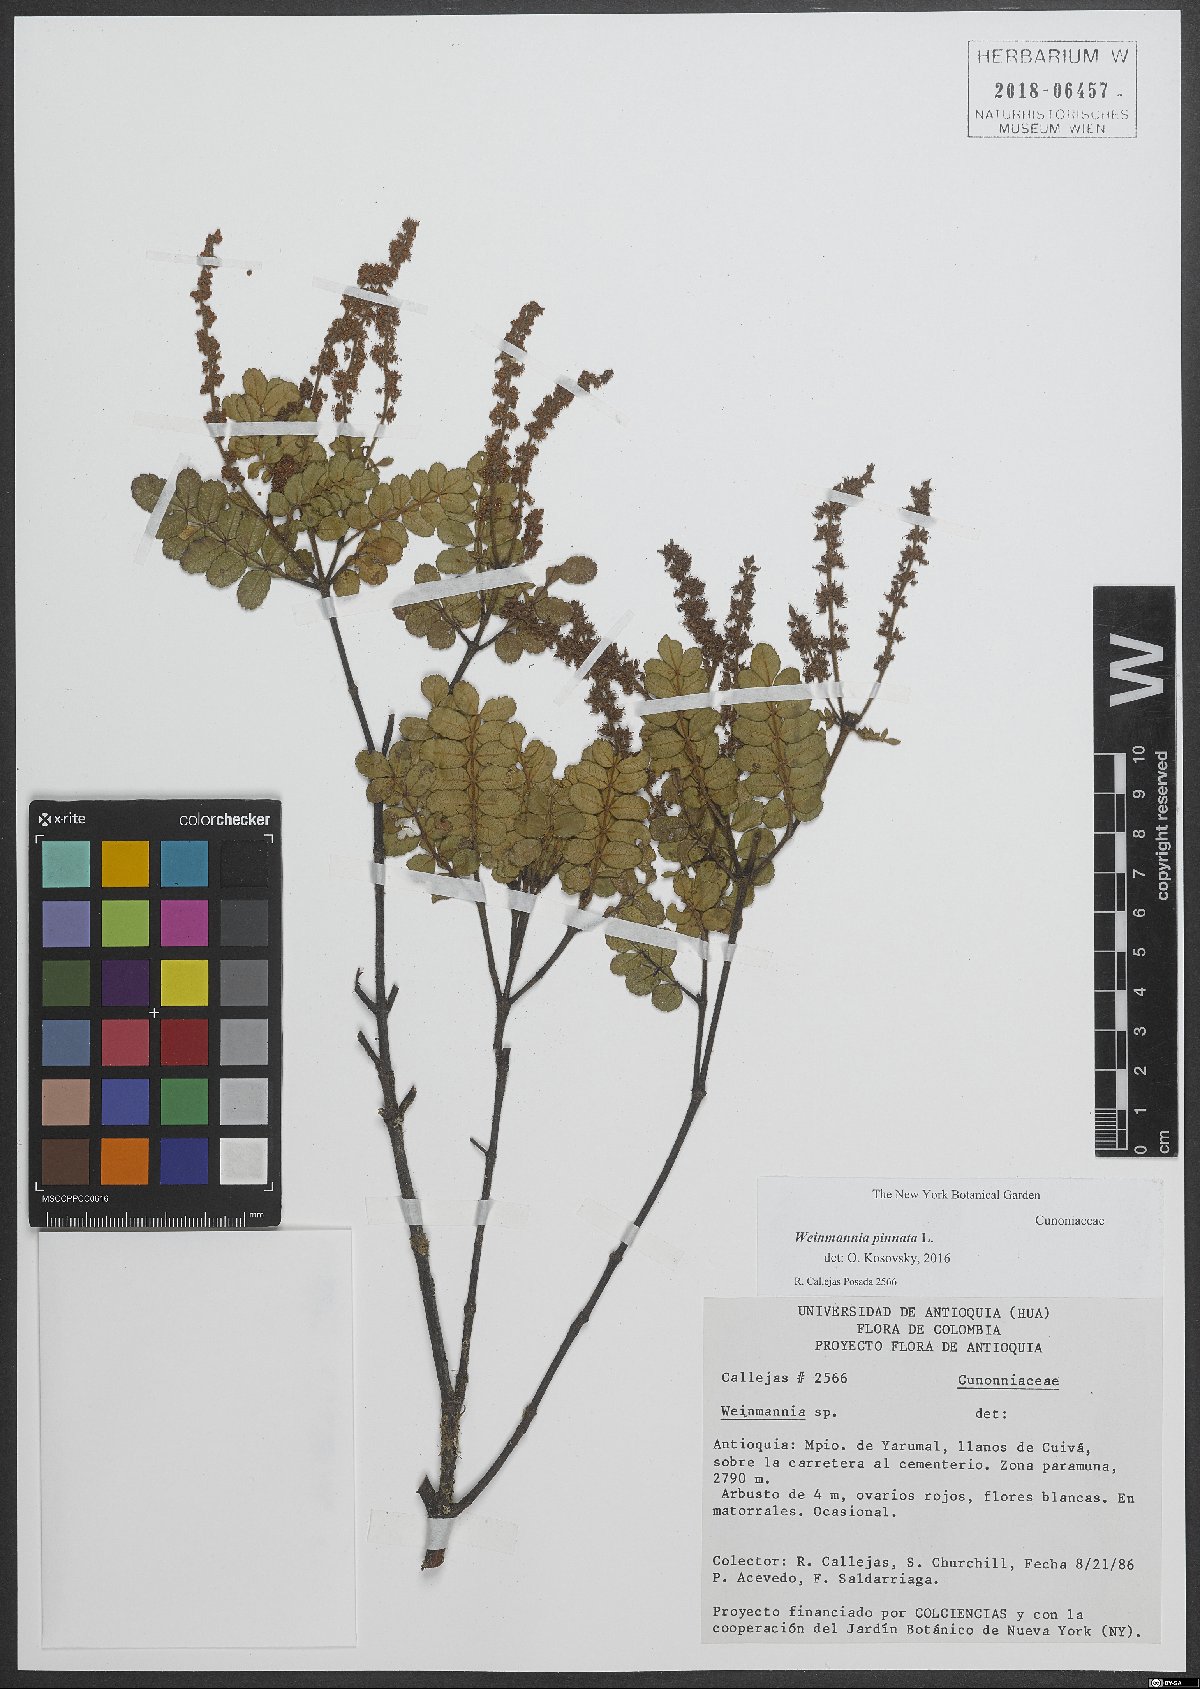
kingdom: Plantae
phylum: Tracheophyta
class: Magnoliopsida
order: Oxalidales
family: Cunoniaceae
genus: Weinmannia
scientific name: Weinmannia pinnata
